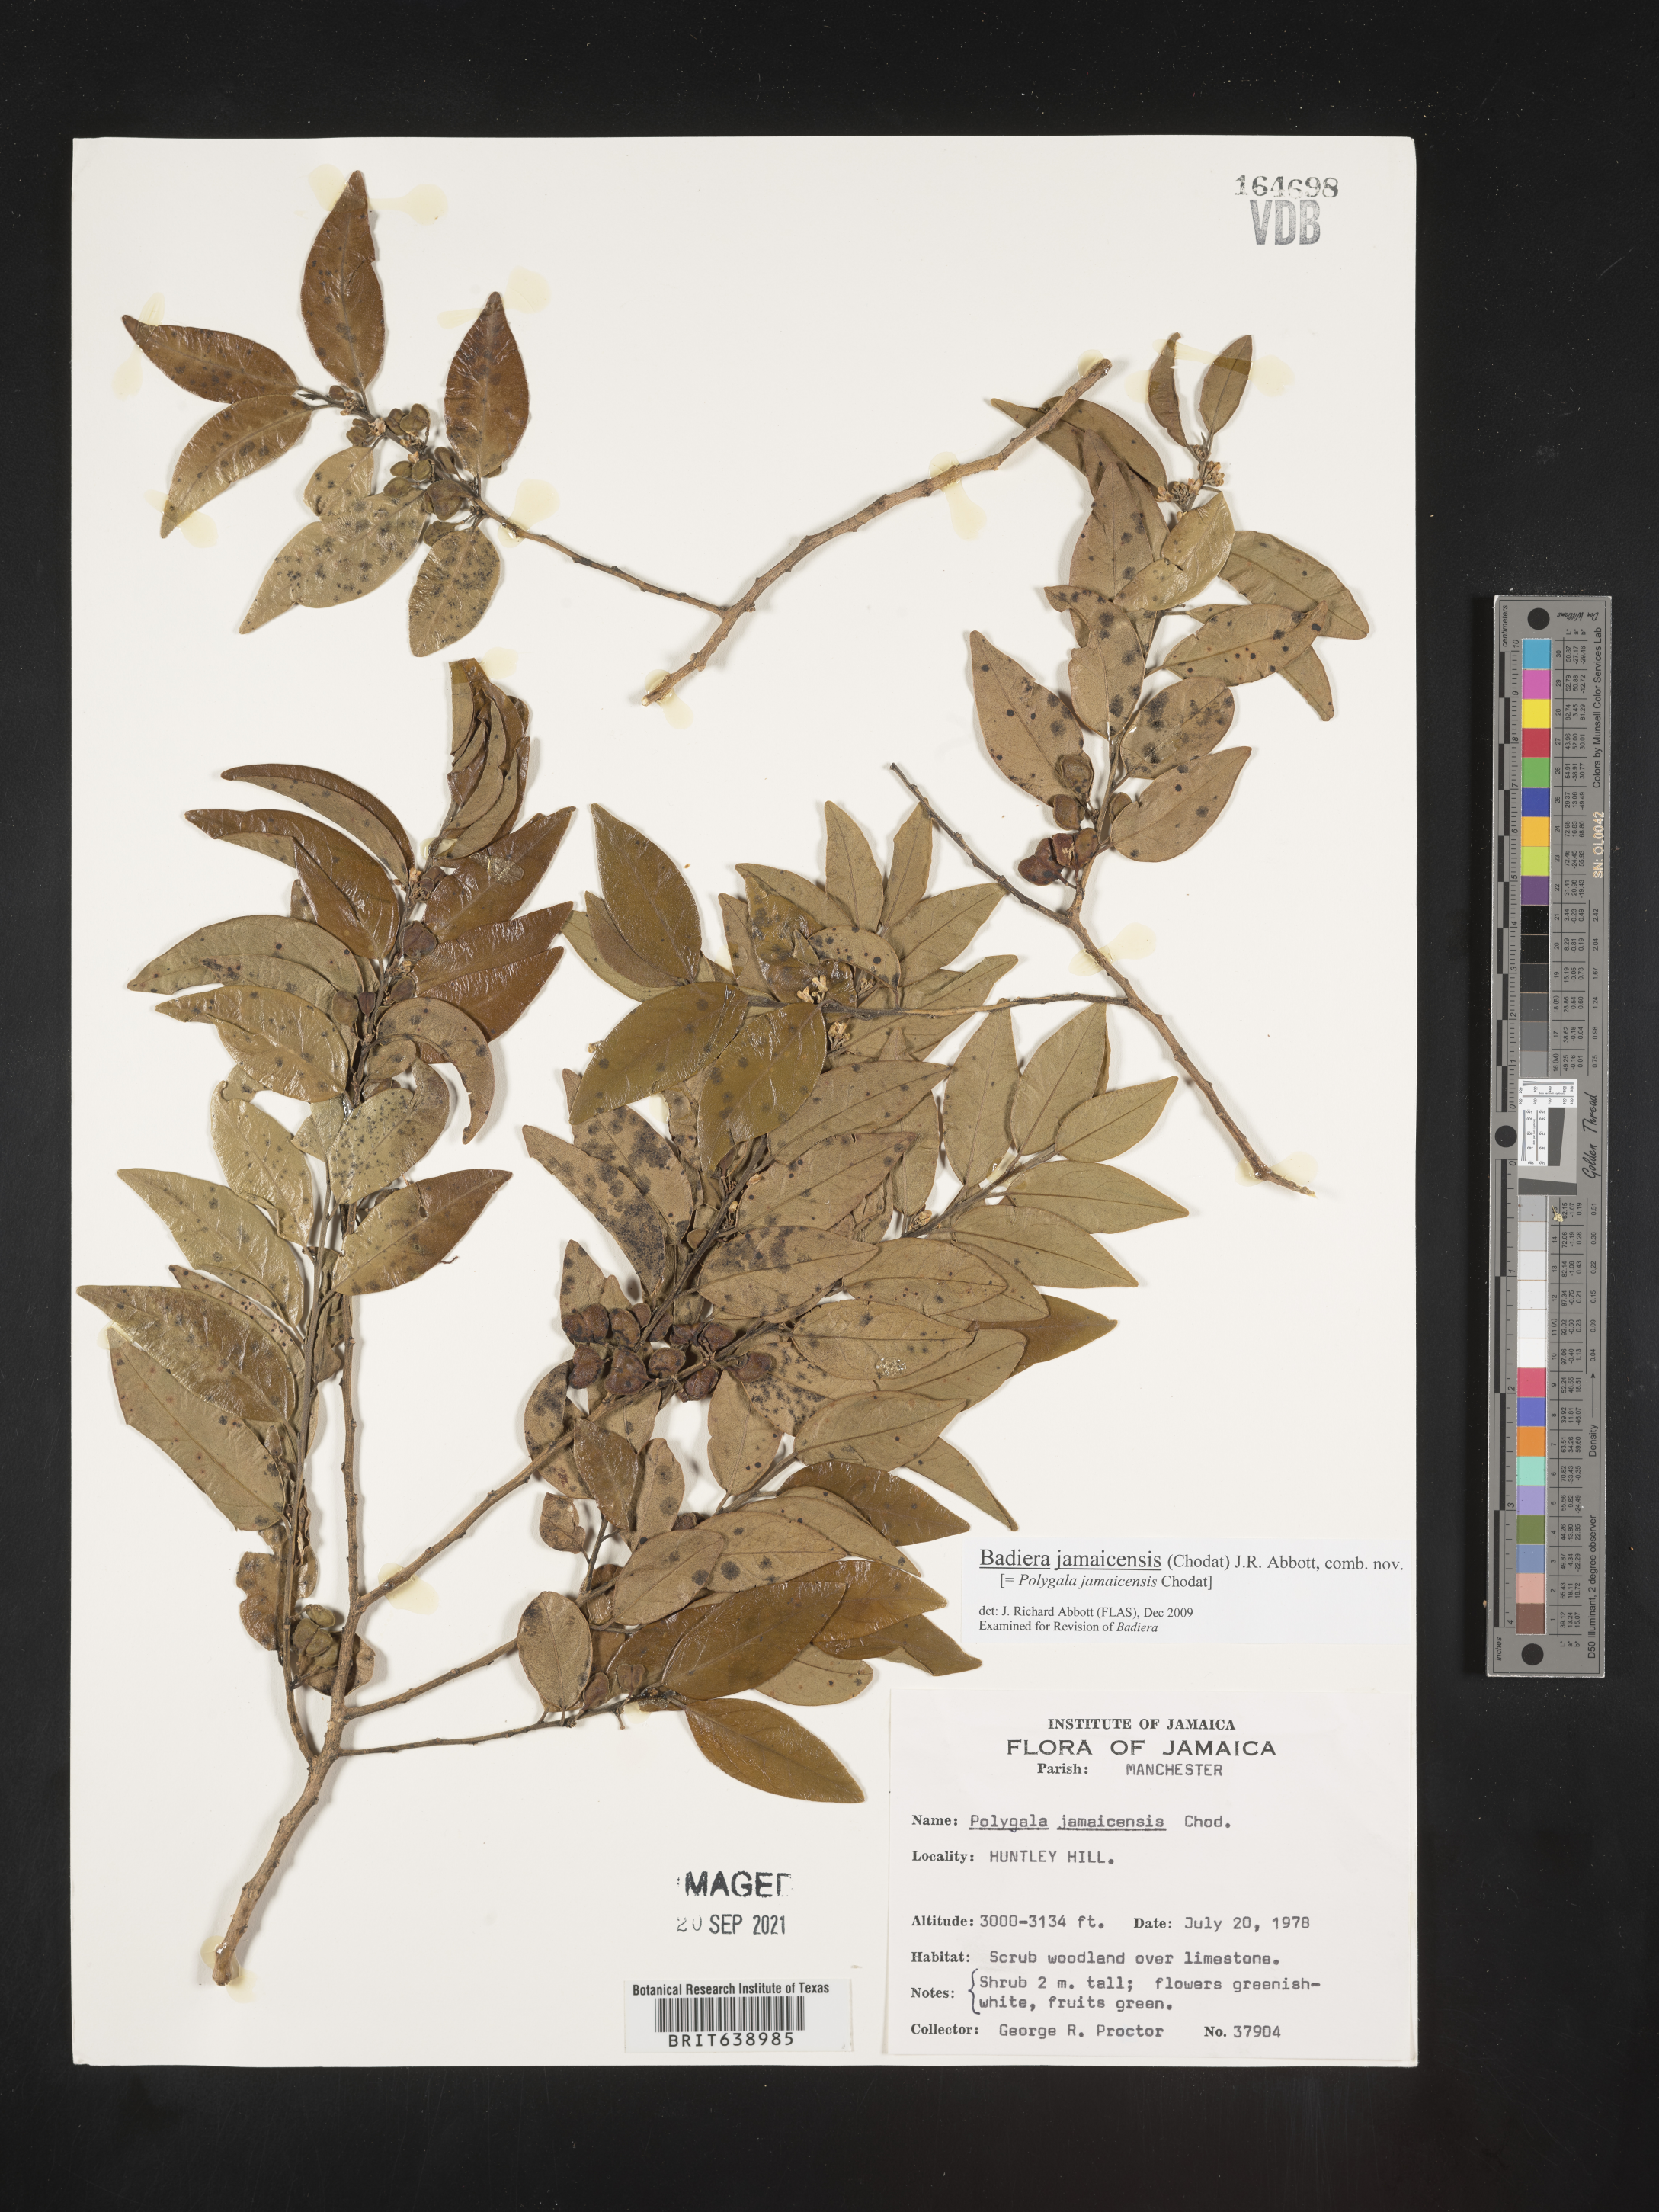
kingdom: Plantae
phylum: Tracheophyta
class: Magnoliopsida
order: Fabales
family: Polygalaceae
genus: Polygala
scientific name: Polygala
